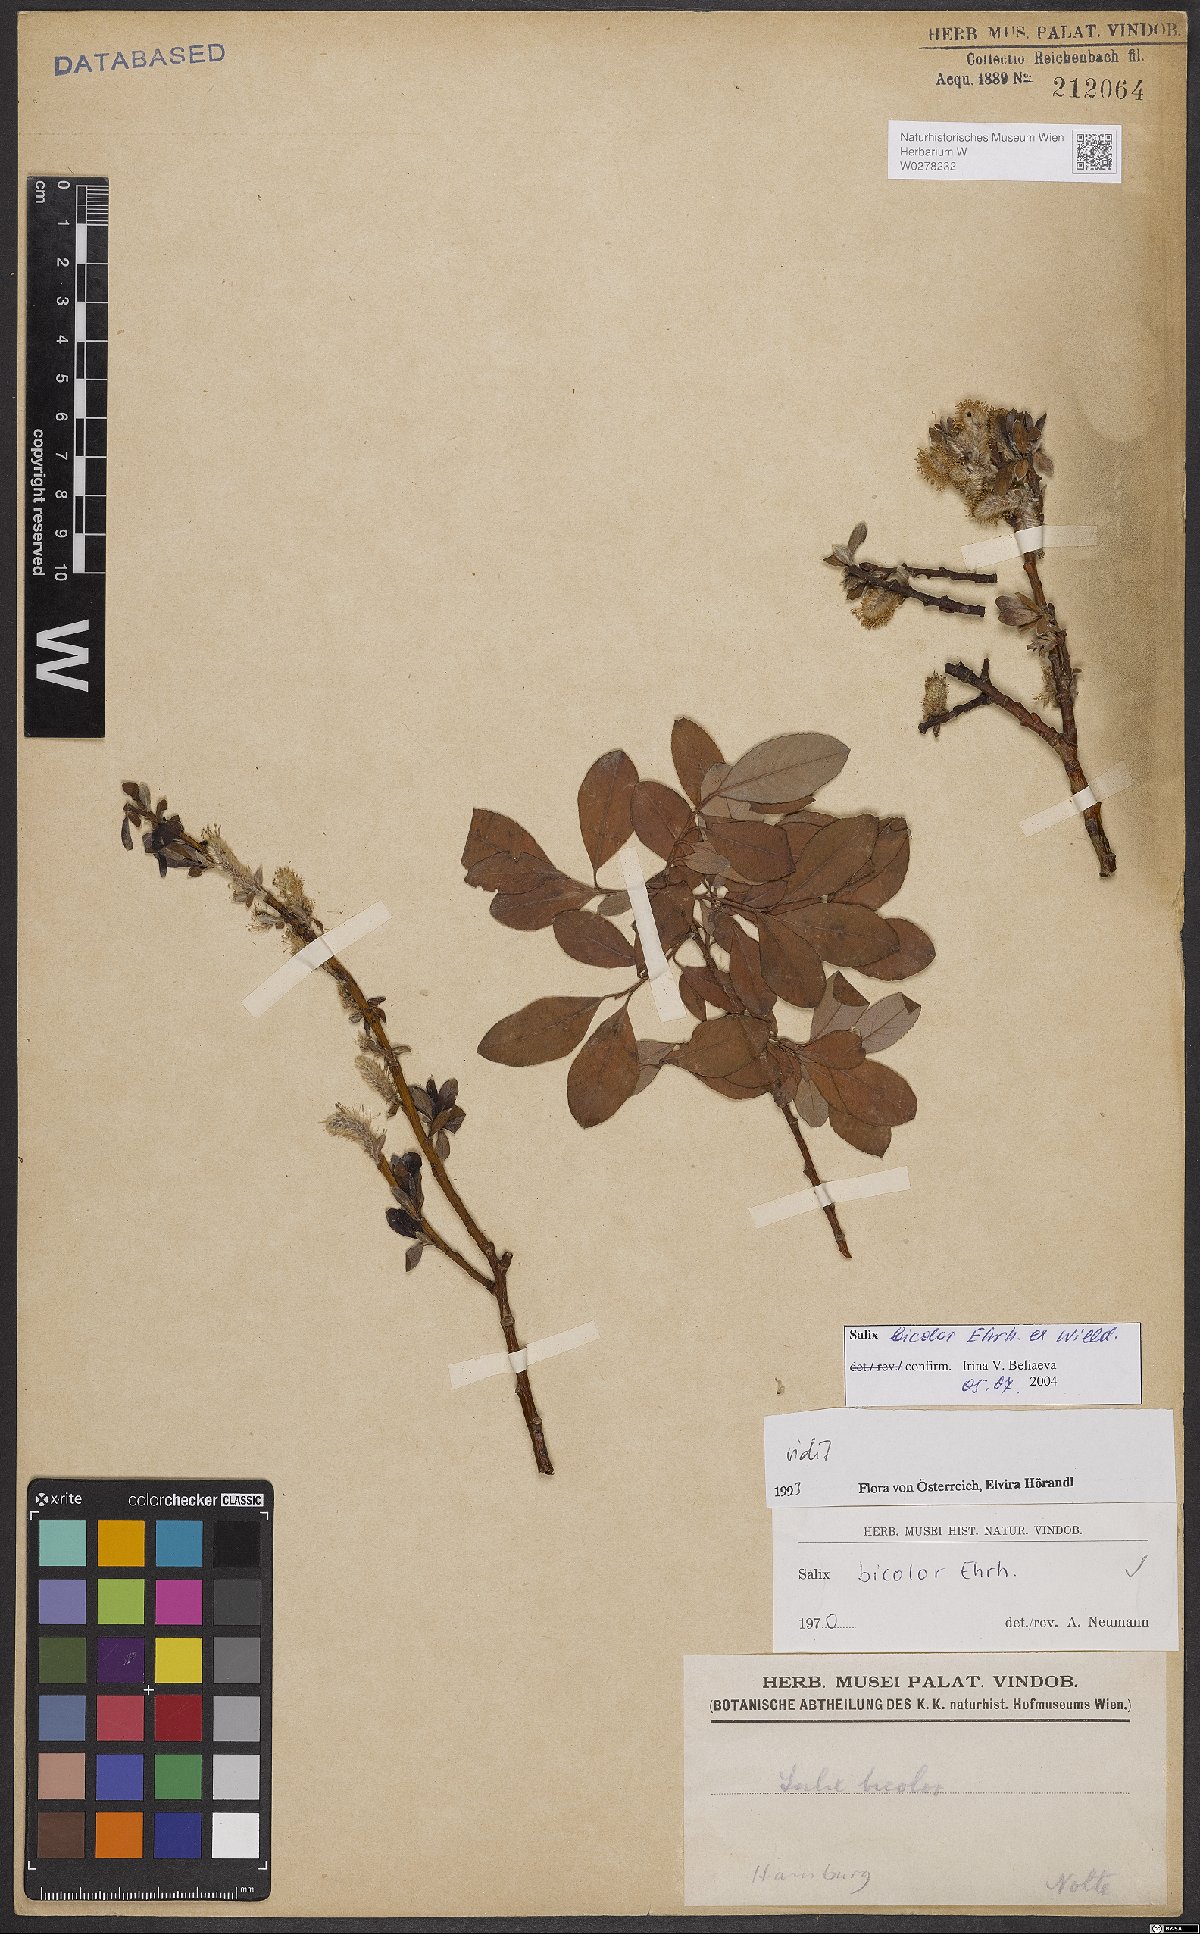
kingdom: Plantae
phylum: Tracheophyta
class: Magnoliopsida
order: Malpighiales
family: Salicaceae
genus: Salix
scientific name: Salix bicolor
